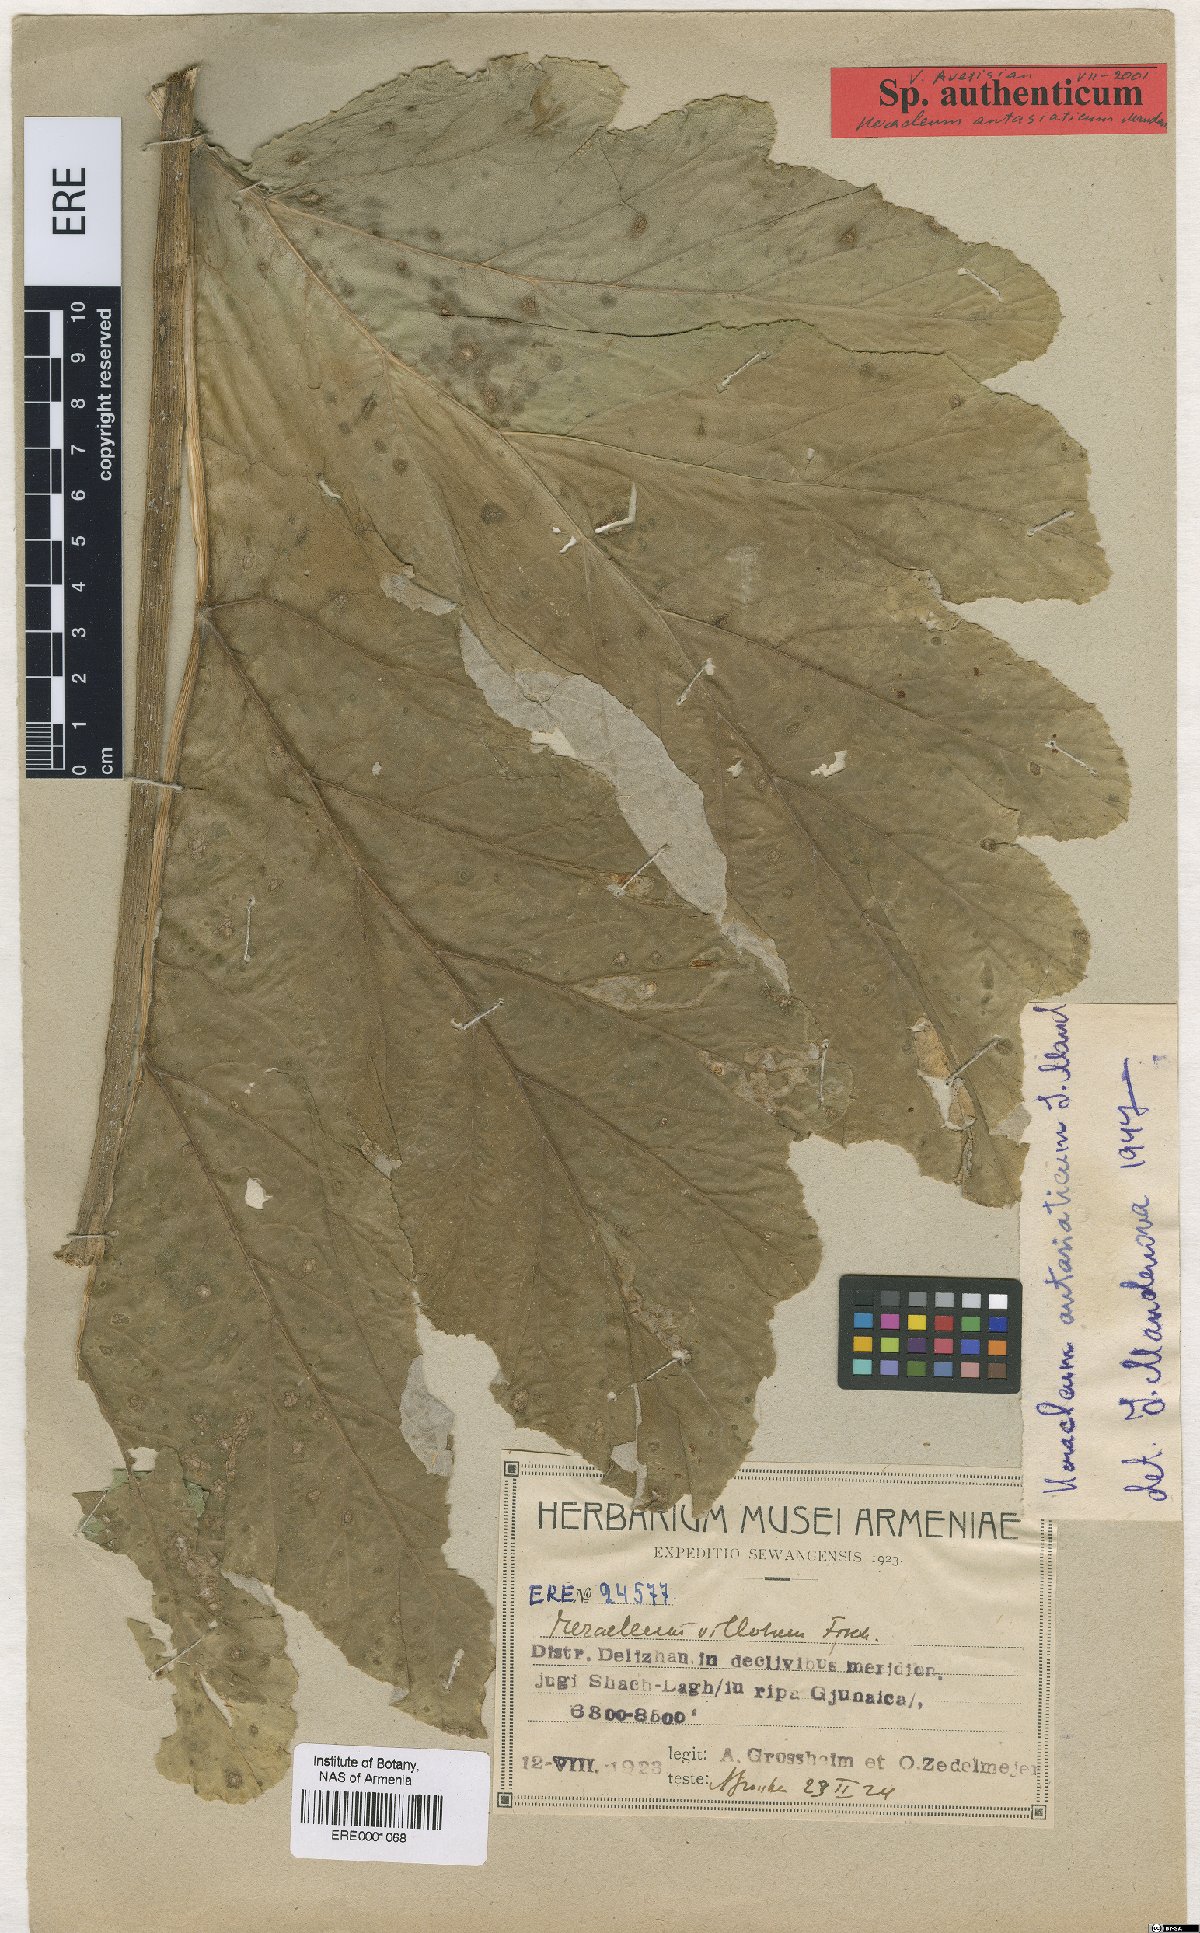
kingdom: Plantae
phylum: Tracheophyta
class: Magnoliopsida
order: Apiales
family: Apiaceae
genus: Heracleum
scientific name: Heracleum antasiaticum
